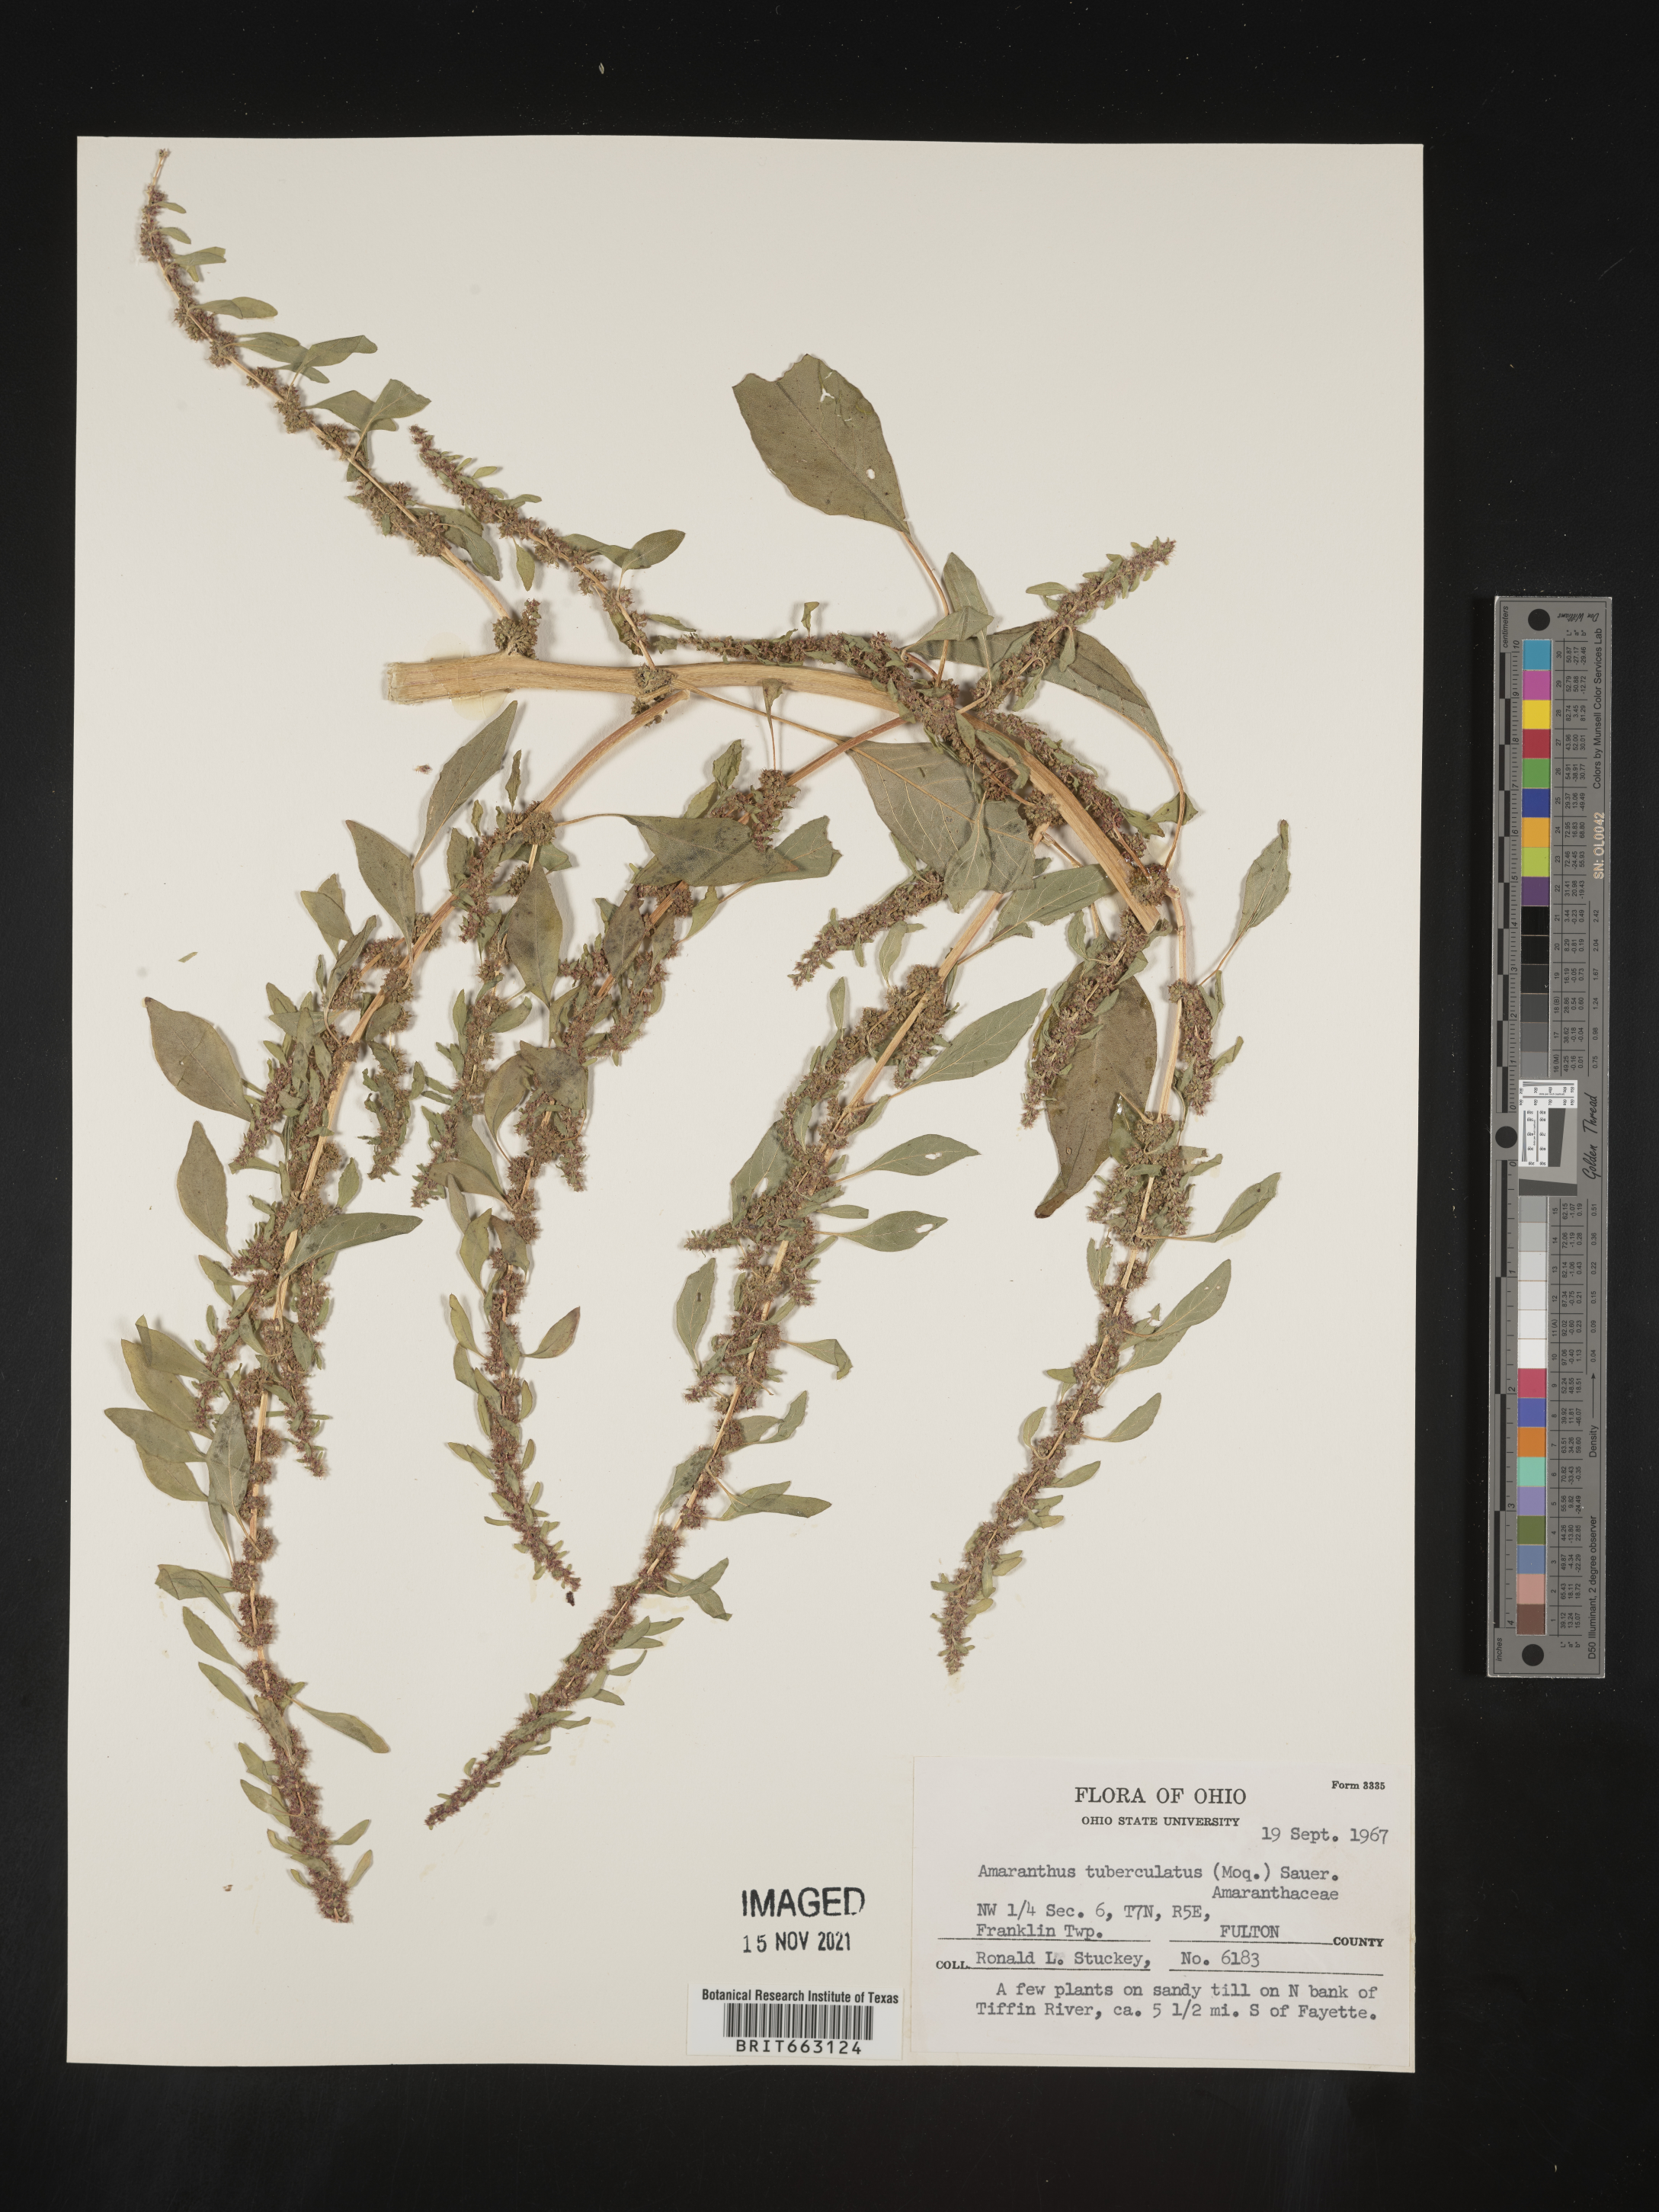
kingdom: Plantae
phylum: Tracheophyta
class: Magnoliopsida
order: Caryophyllales
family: Amaranthaceae
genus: Amaranthus
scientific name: Amaranthus tuberculatus
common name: Rough-fruit amaranth
